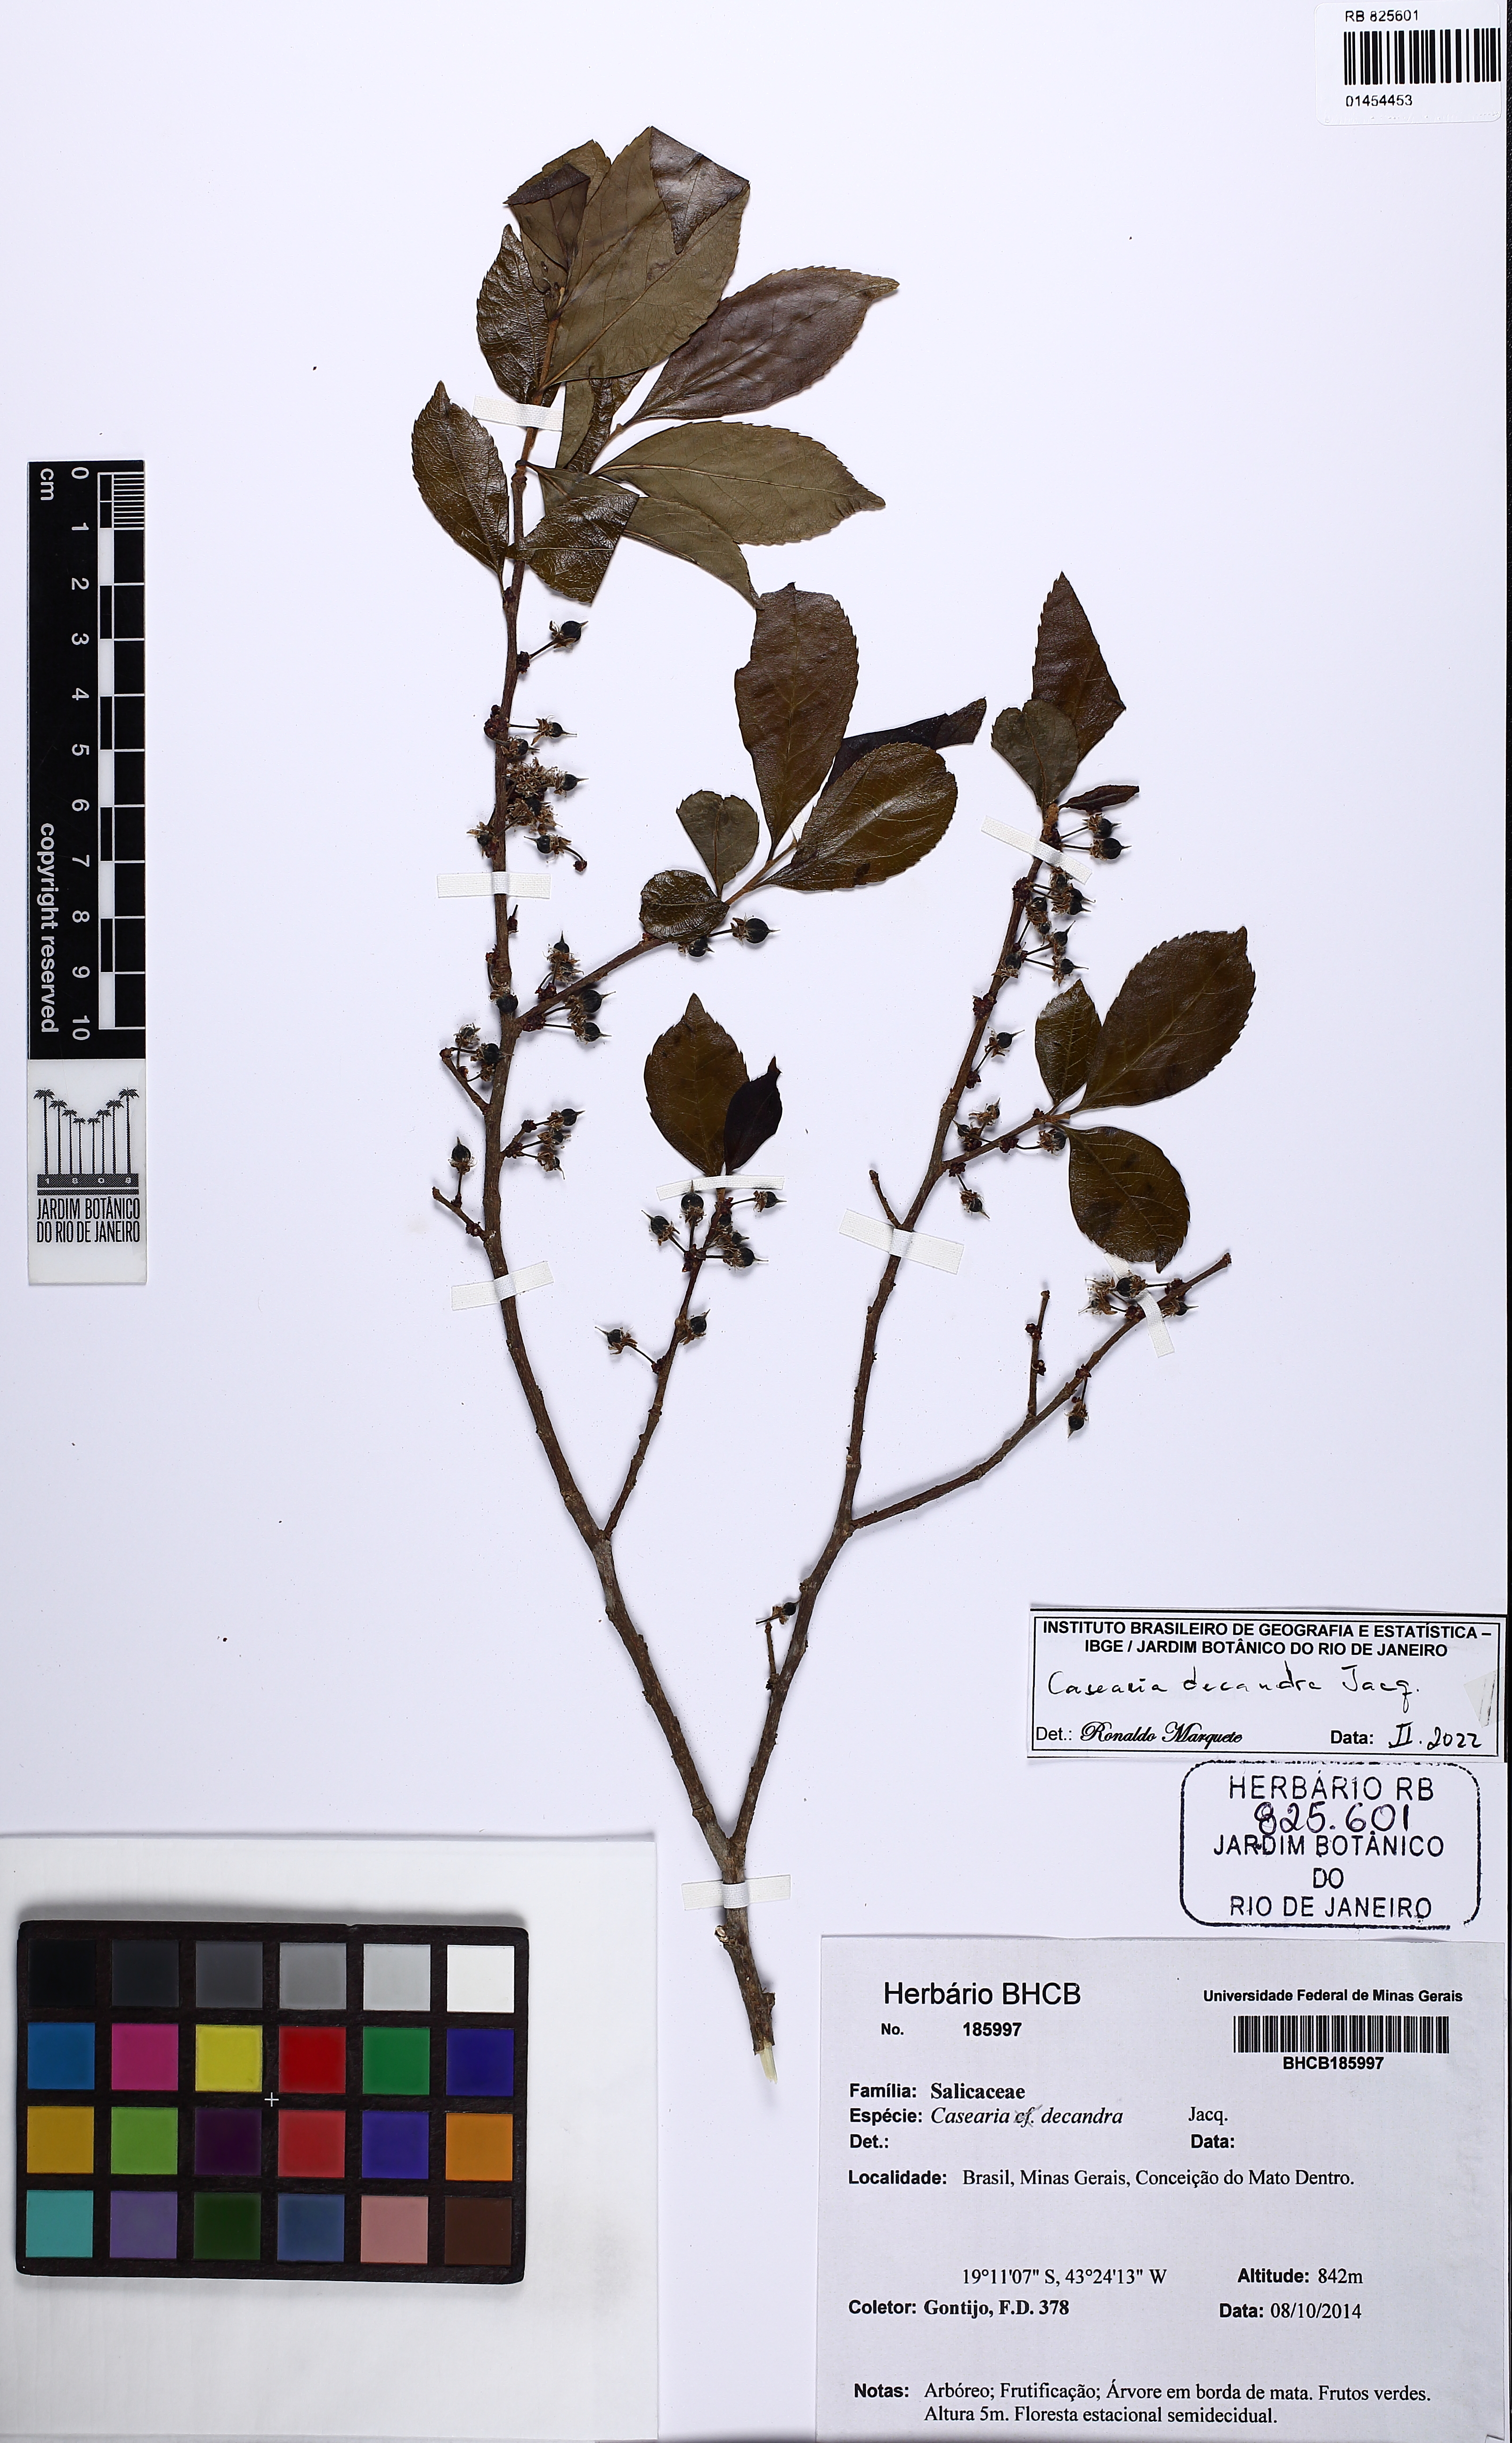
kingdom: Plantae
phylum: Tracheophyta
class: Magnoliopsida
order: Malpighiales
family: Salicaceae
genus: Casearia
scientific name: Casearia decandra
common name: Crack open
